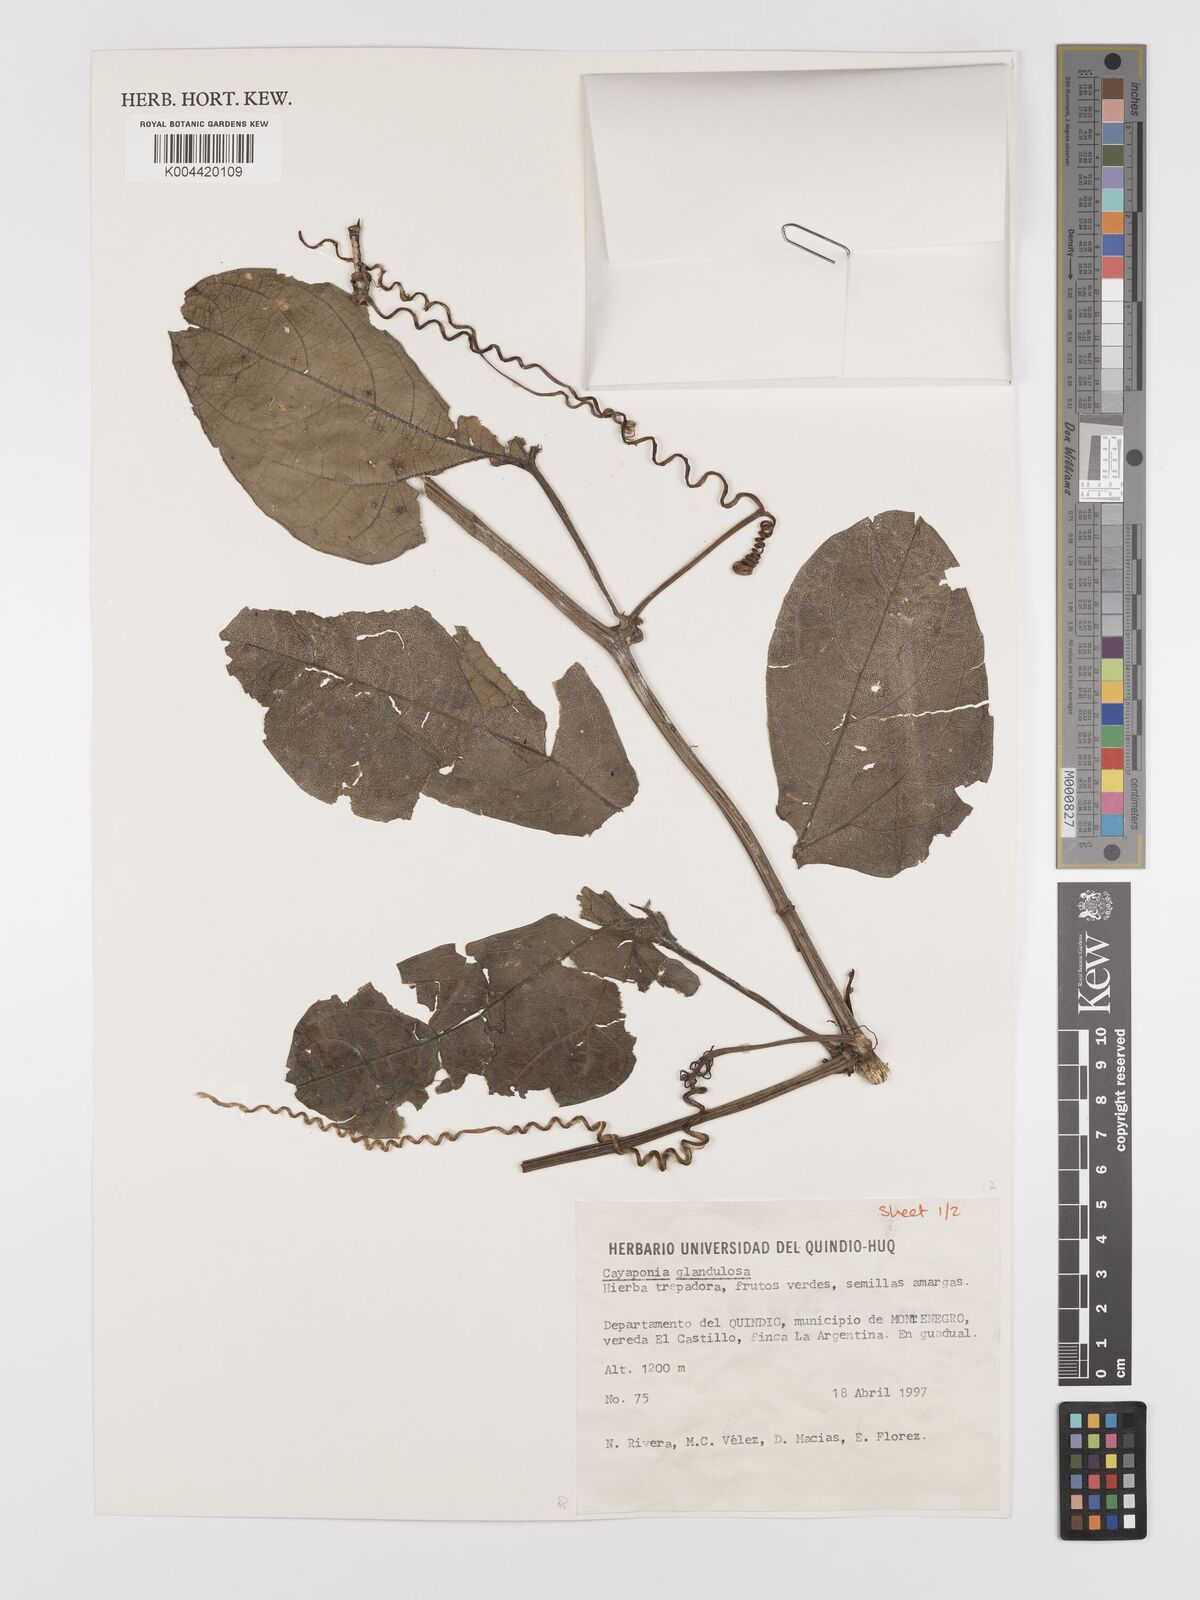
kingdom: Plantae
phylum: Tracheophyta
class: Magnoliopsida
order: Cucurbitales
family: Cucurbitaceae
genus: Cayaponia
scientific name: Cayaponia glandulosa
